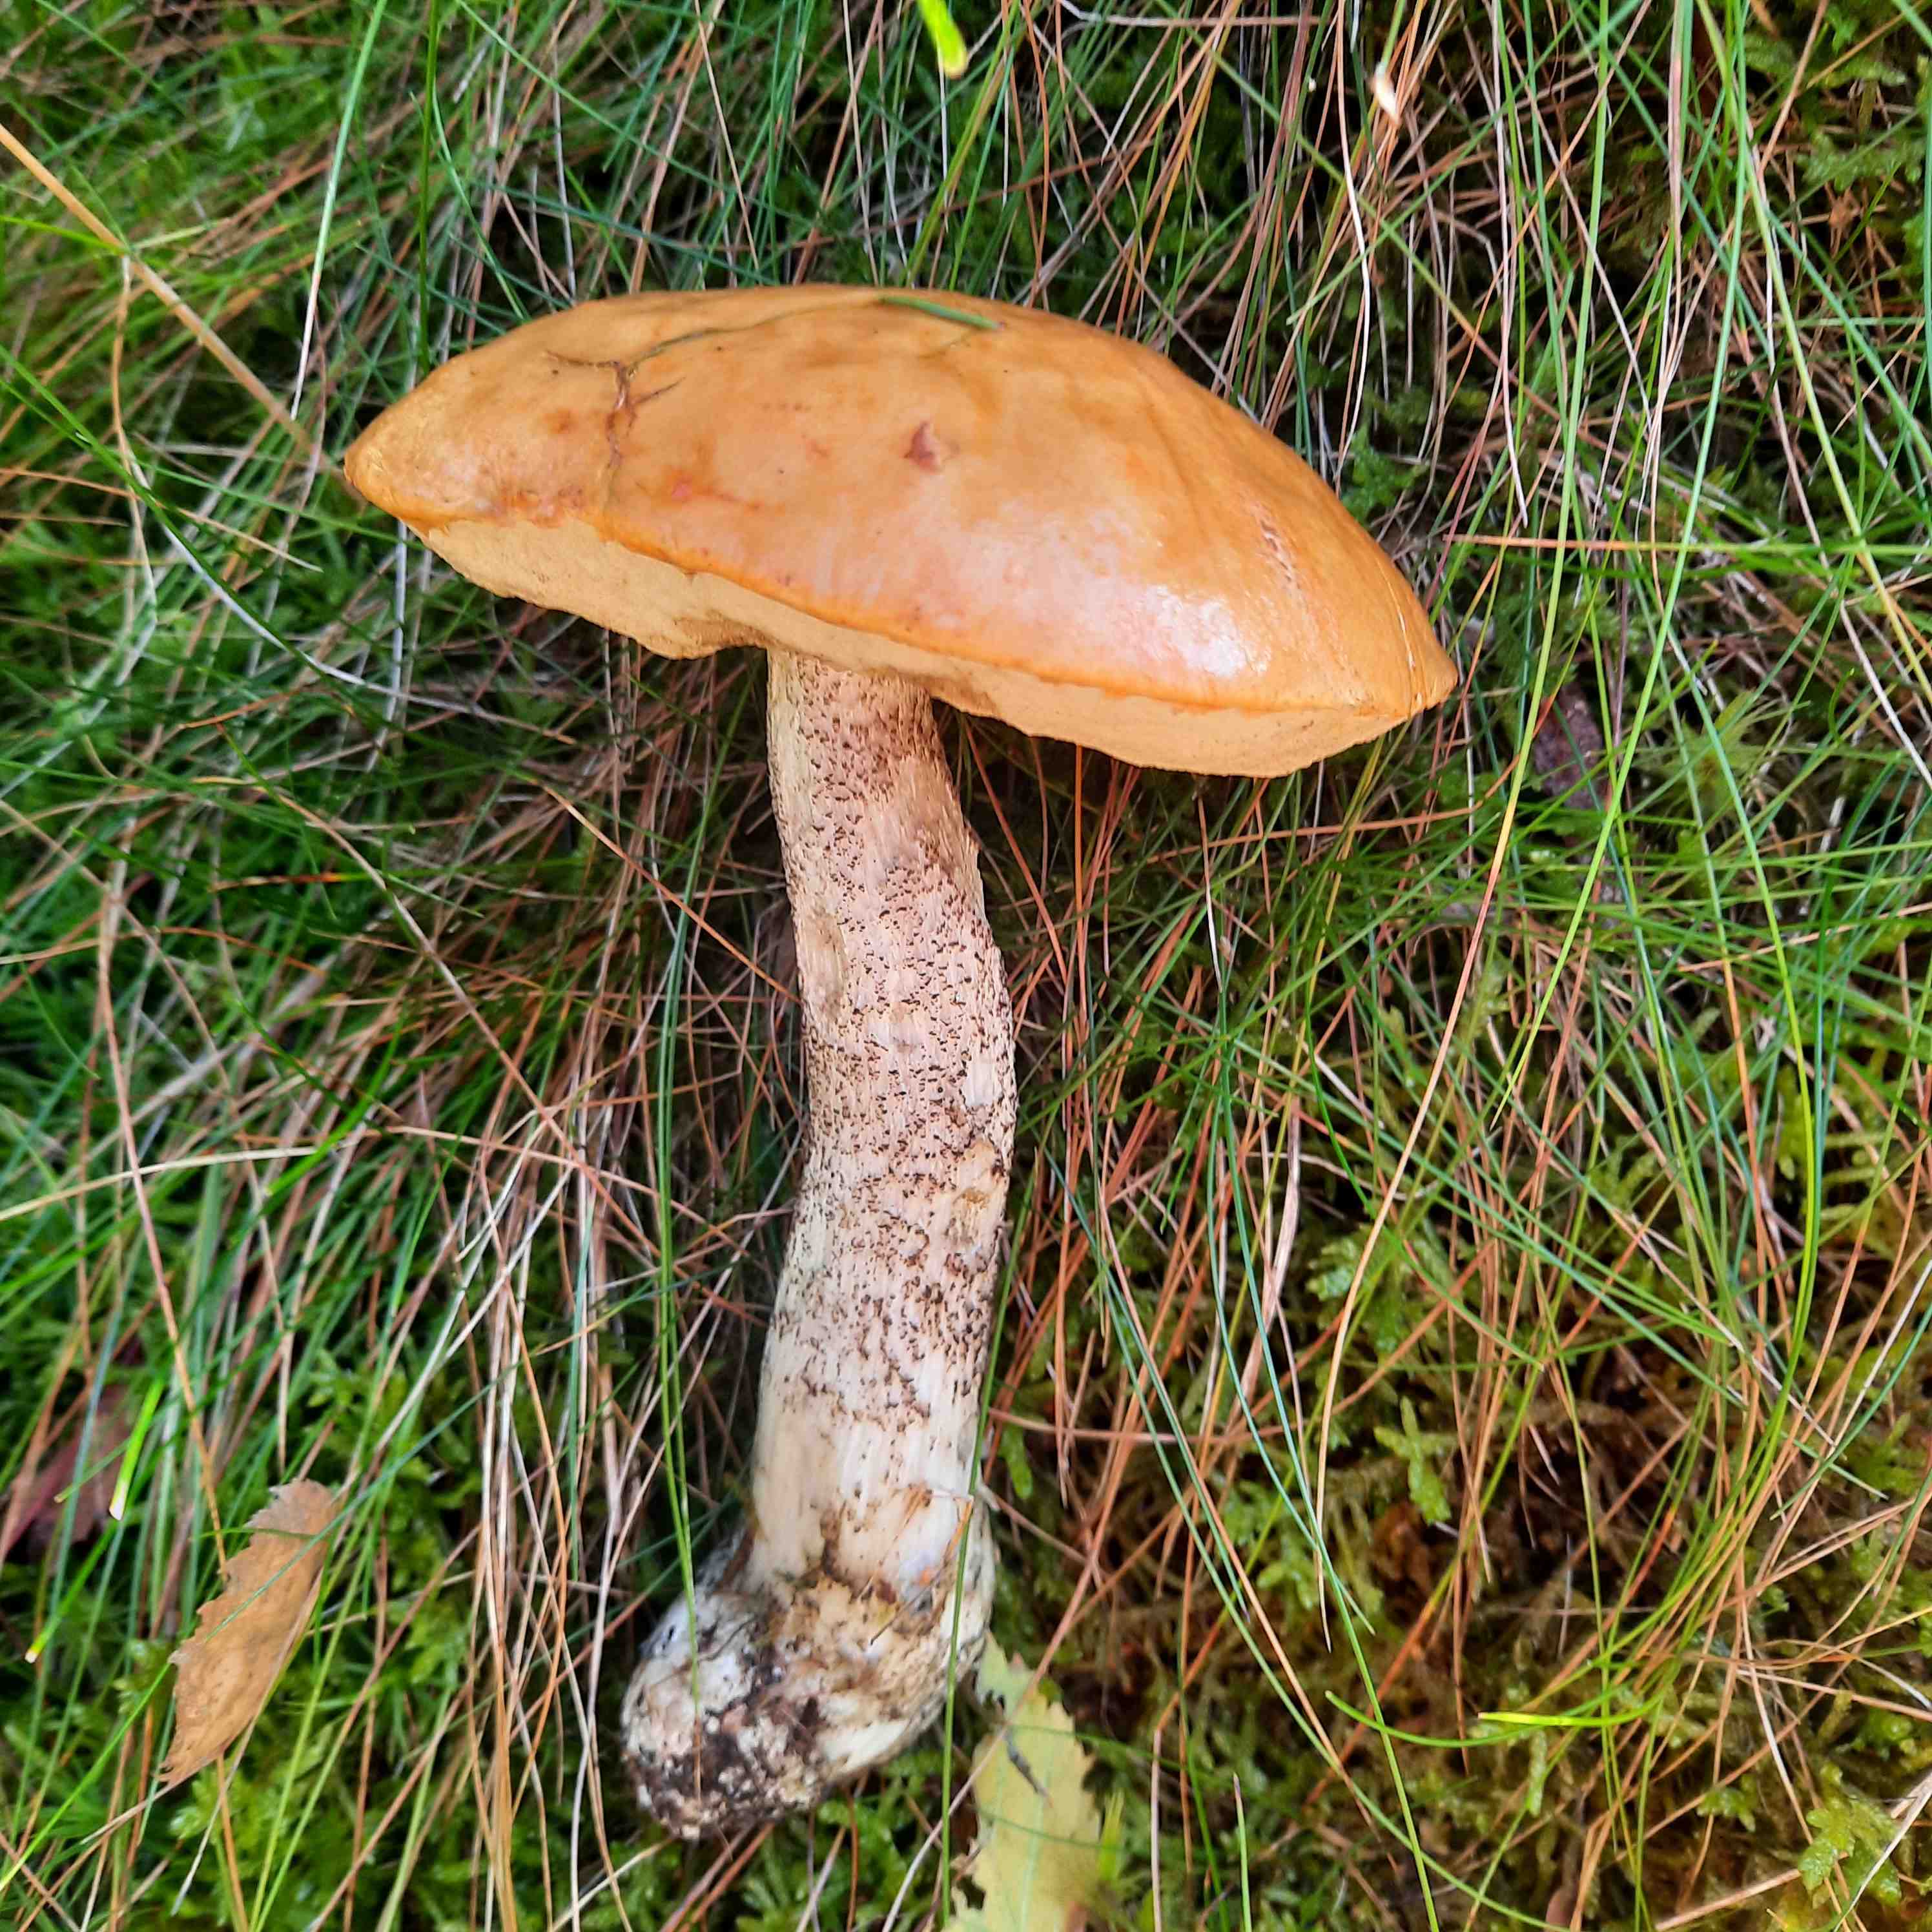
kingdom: Fungi
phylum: Basidiomycota
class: Agaricomycetes
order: Boletales
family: Boletaceae
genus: Leccinum
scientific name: Leccinum versipelle
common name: orange skælrørhat
